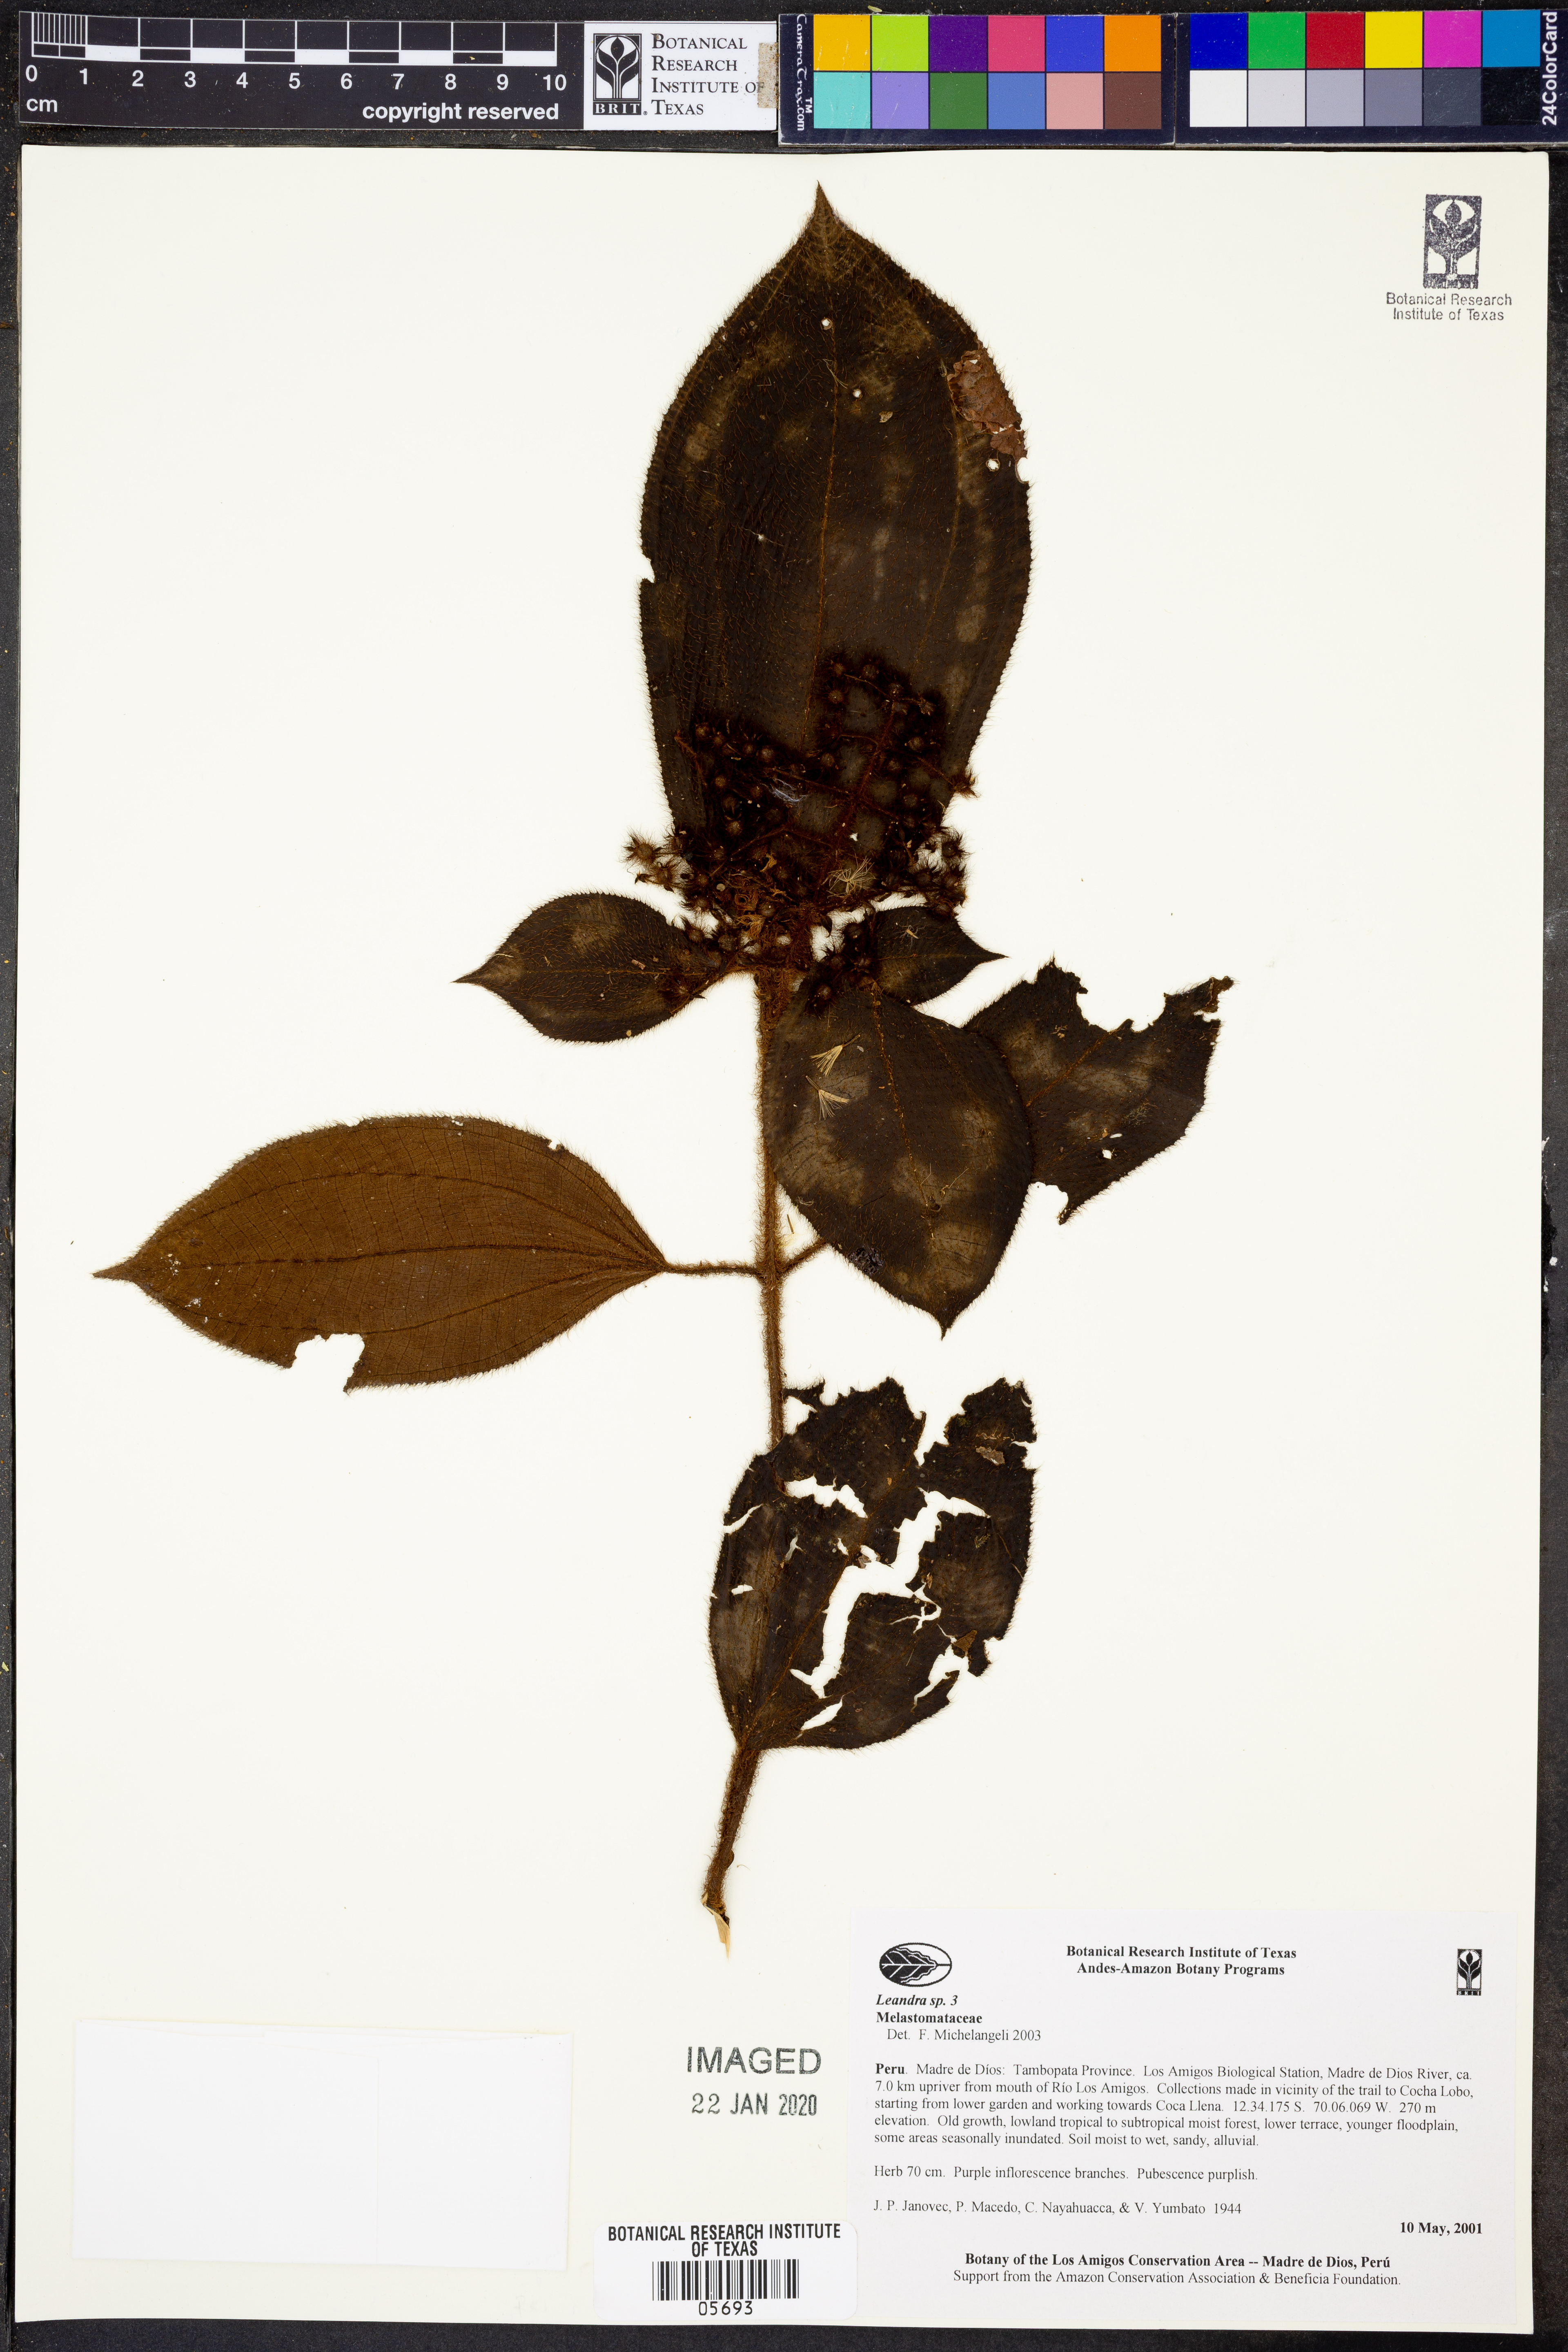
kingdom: Plantae
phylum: Tracheophyta
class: Magnoliopsida
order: Myrtales
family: Melastomataceae
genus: Miconia
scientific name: Miconia
